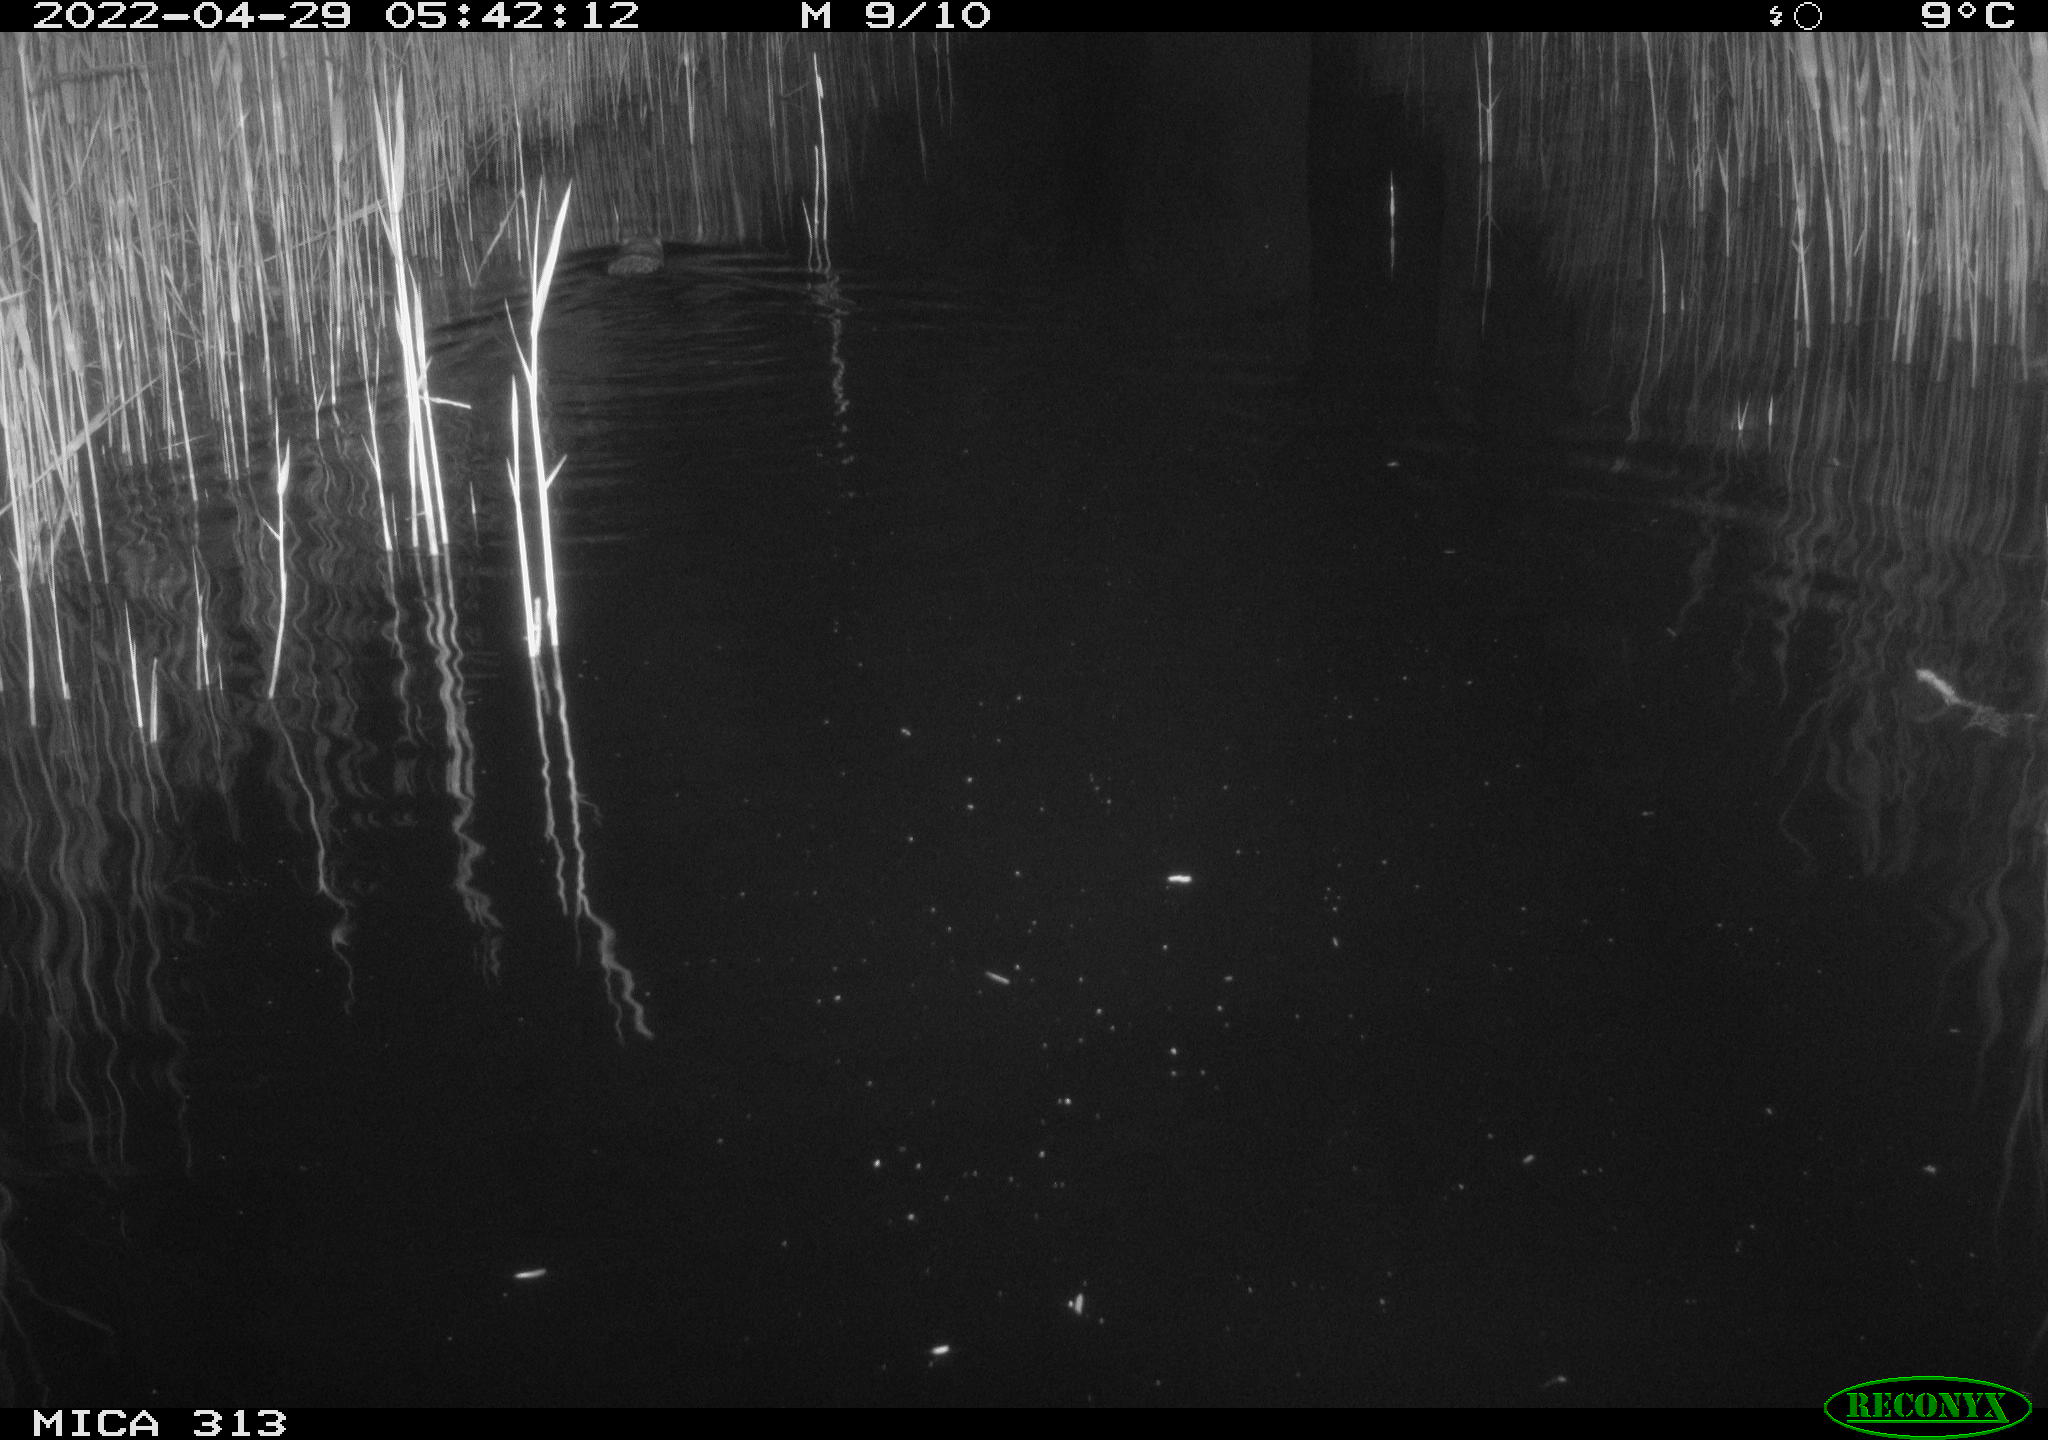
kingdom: Animalia
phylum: Chordata
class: Mammalia
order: Rodentia
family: Cricetidae
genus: Ondatra
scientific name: Ondatra zibethicus
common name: Muskrat
